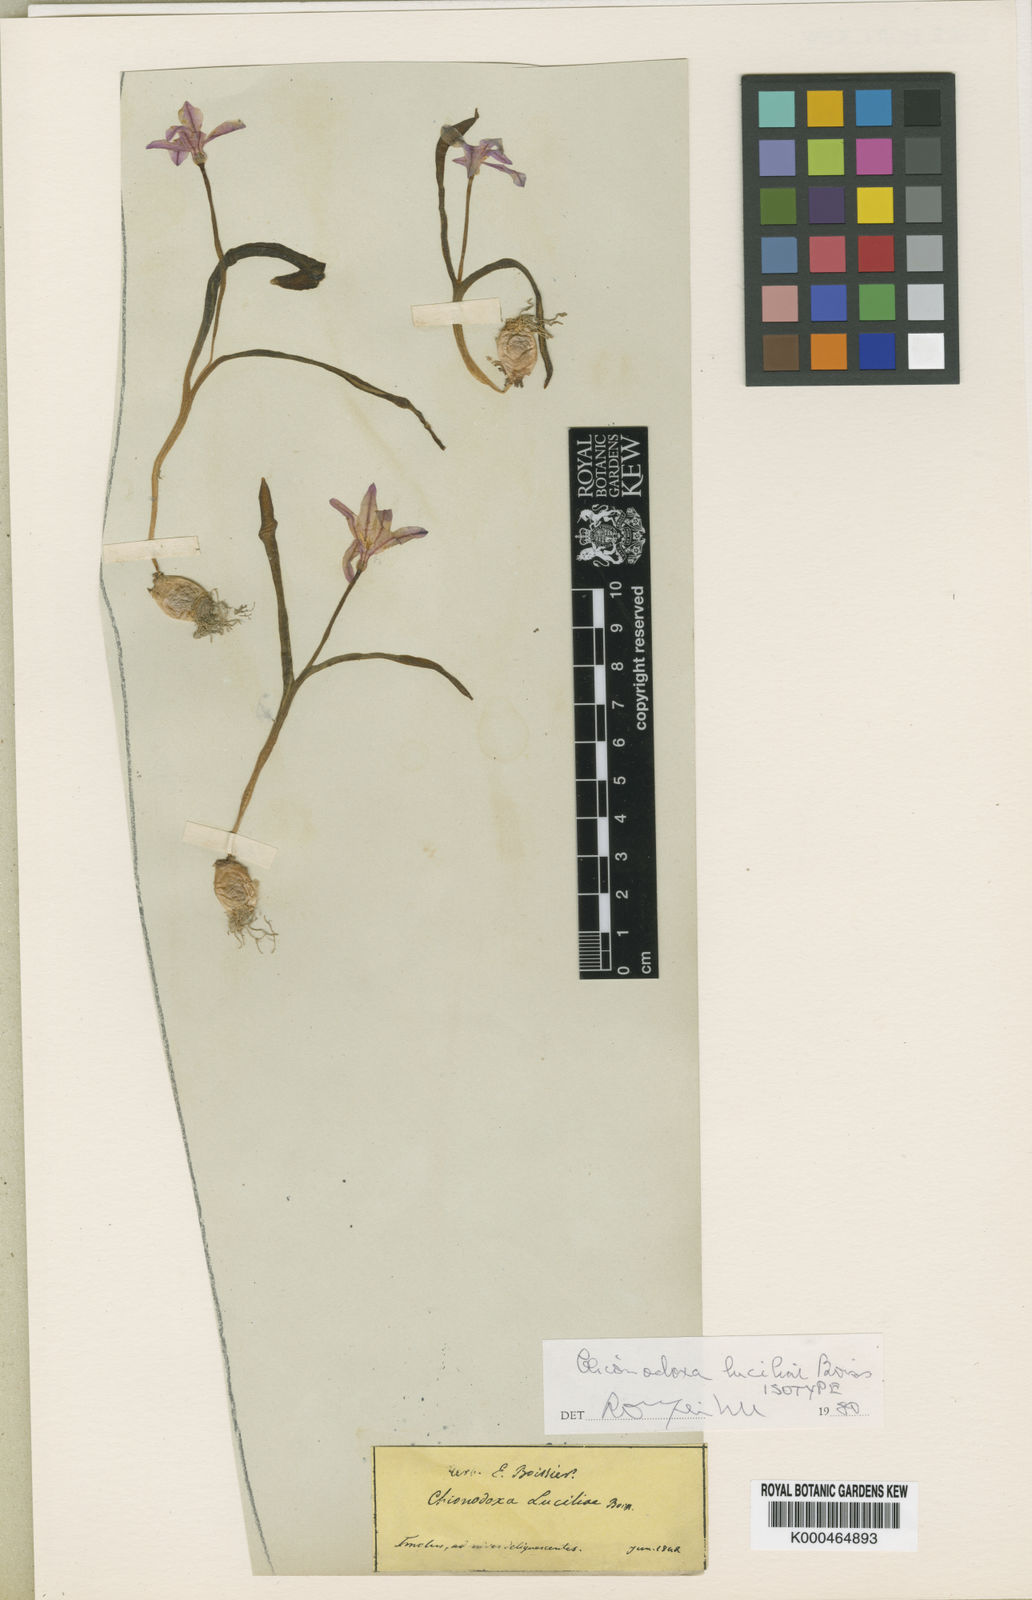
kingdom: Plantae
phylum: Tracheophyta
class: Liliopsida
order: Asparagales
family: Asparagaceae
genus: Scilla
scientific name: Scilla luciliae
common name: Boissier's glory-of-the-snow
